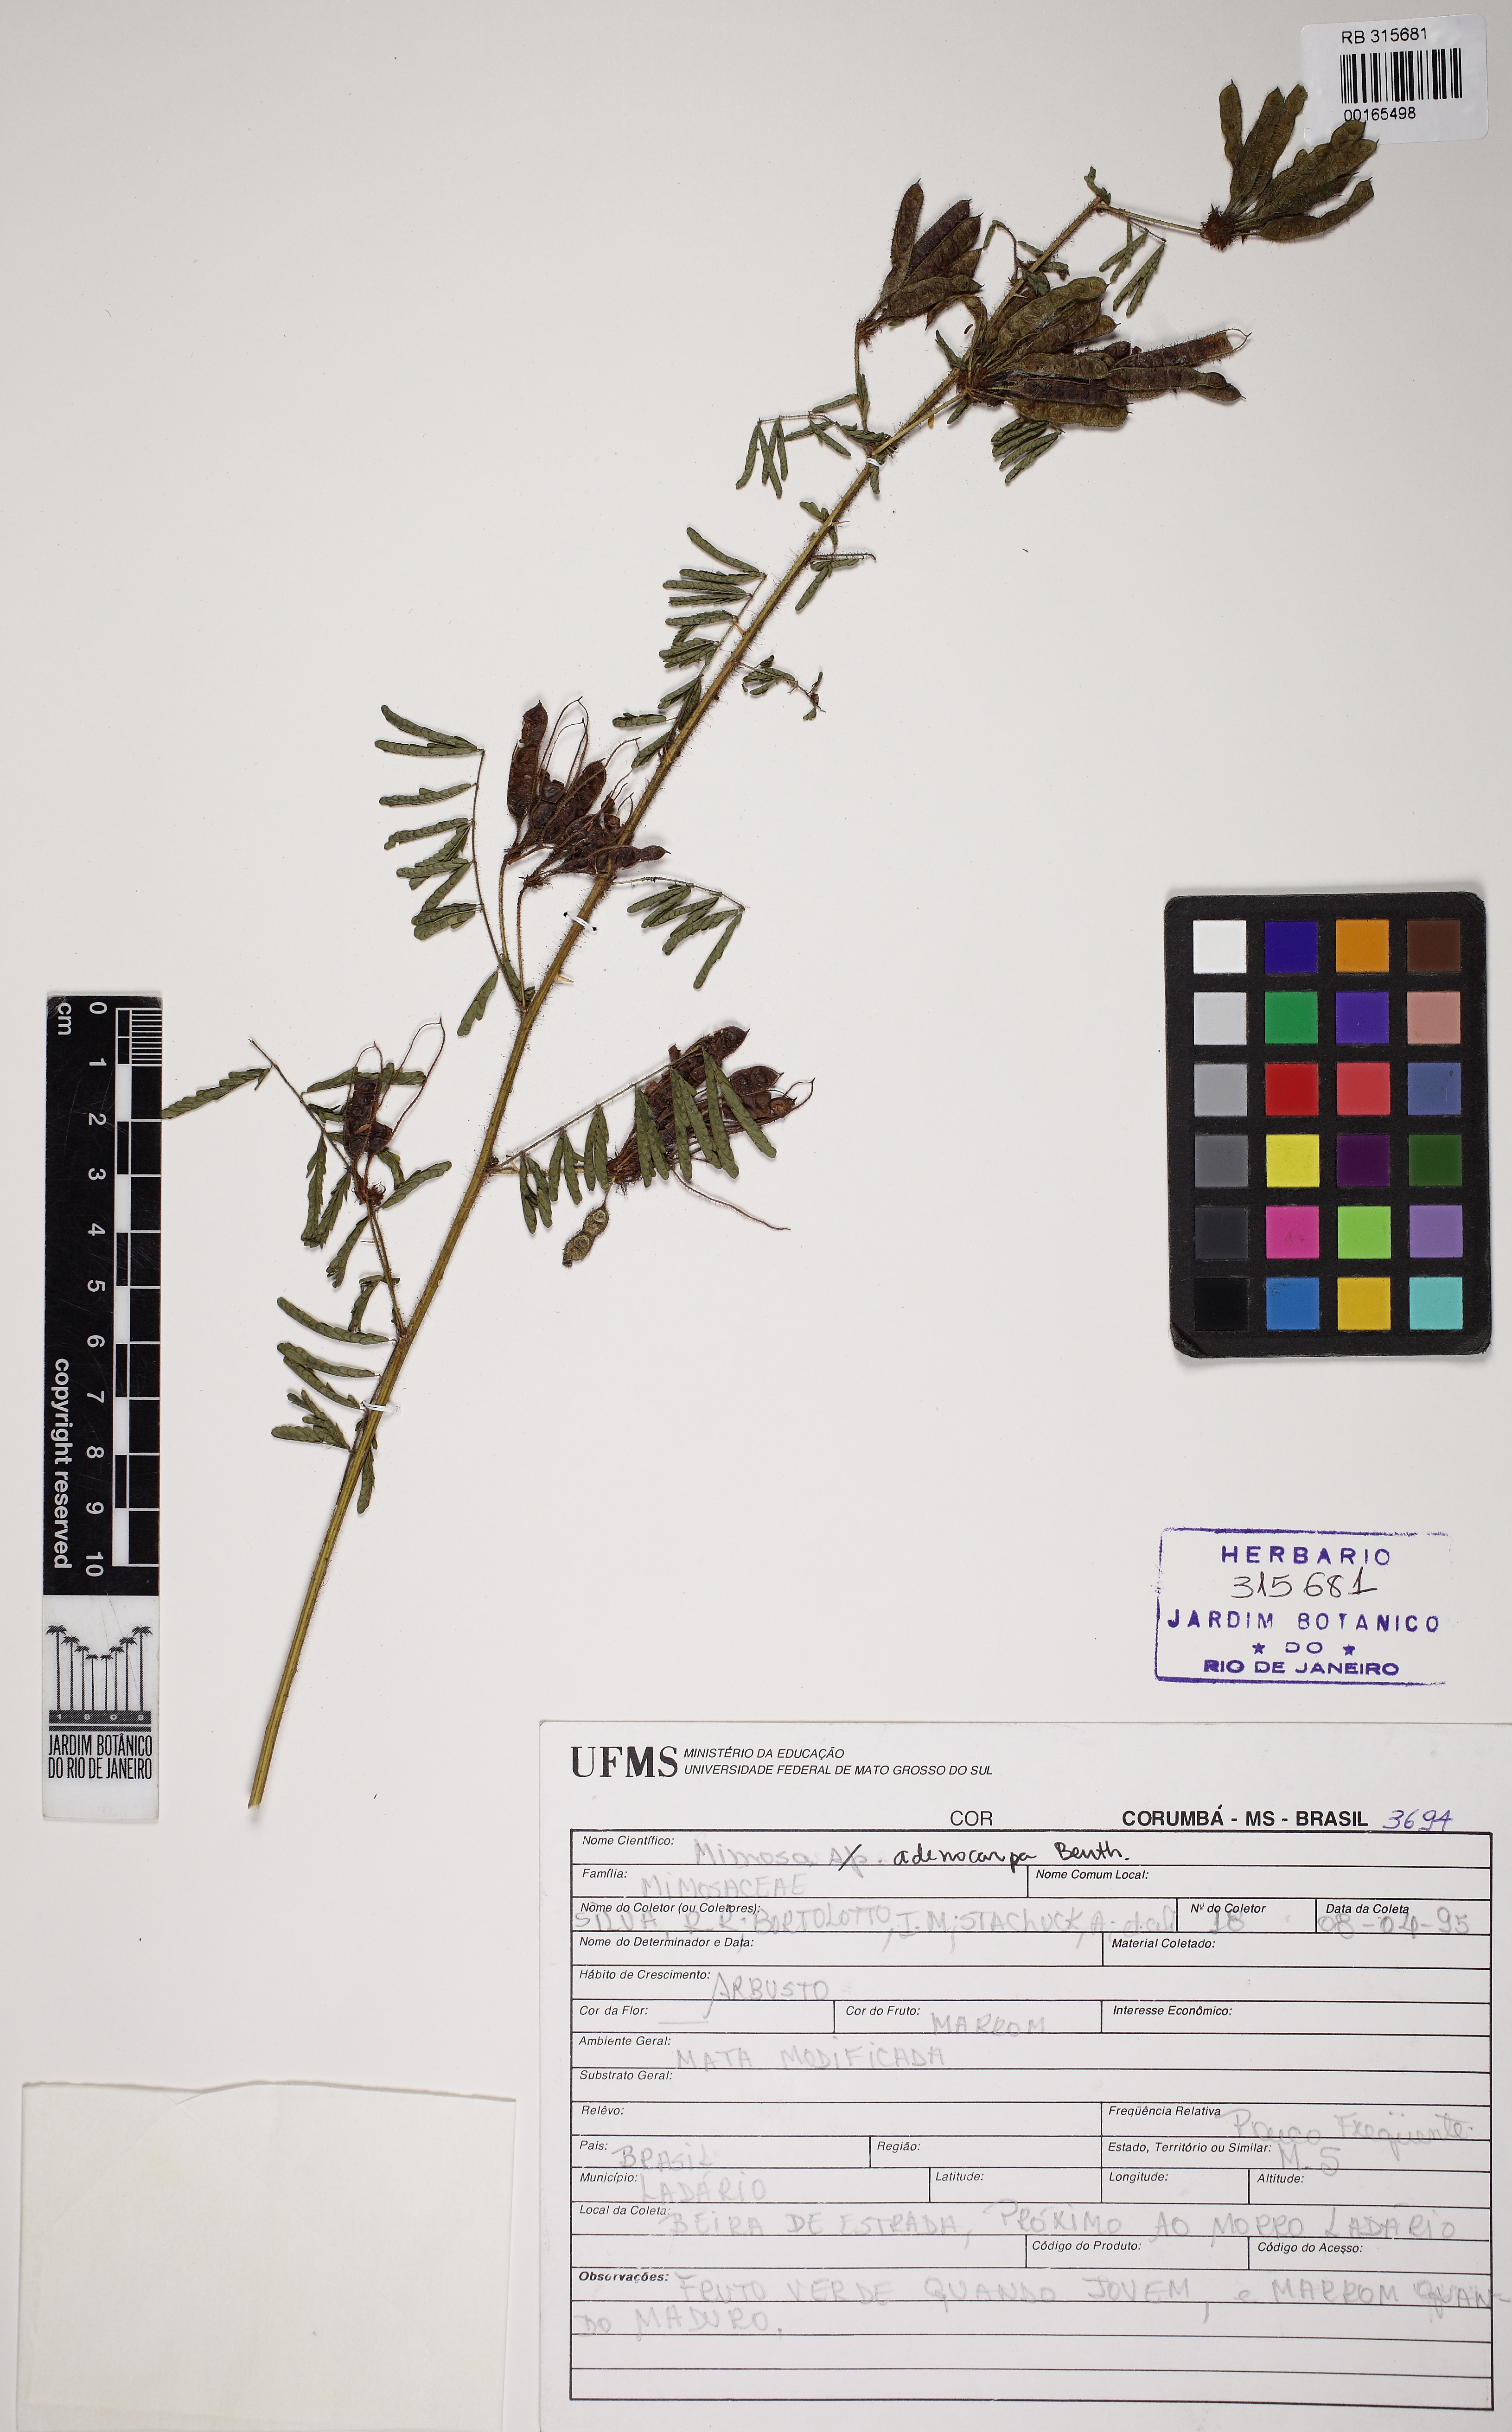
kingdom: Plantae
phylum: Tracheophyta
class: Magnoliopsida
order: Fabales
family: Fabaceae
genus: Mimosa
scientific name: Mimosa adenocarpa
